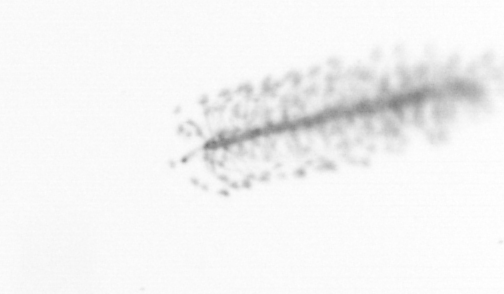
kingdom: Chromista
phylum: Ochrophyta
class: Bacillariophyceae
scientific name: Bacillariophyceae
